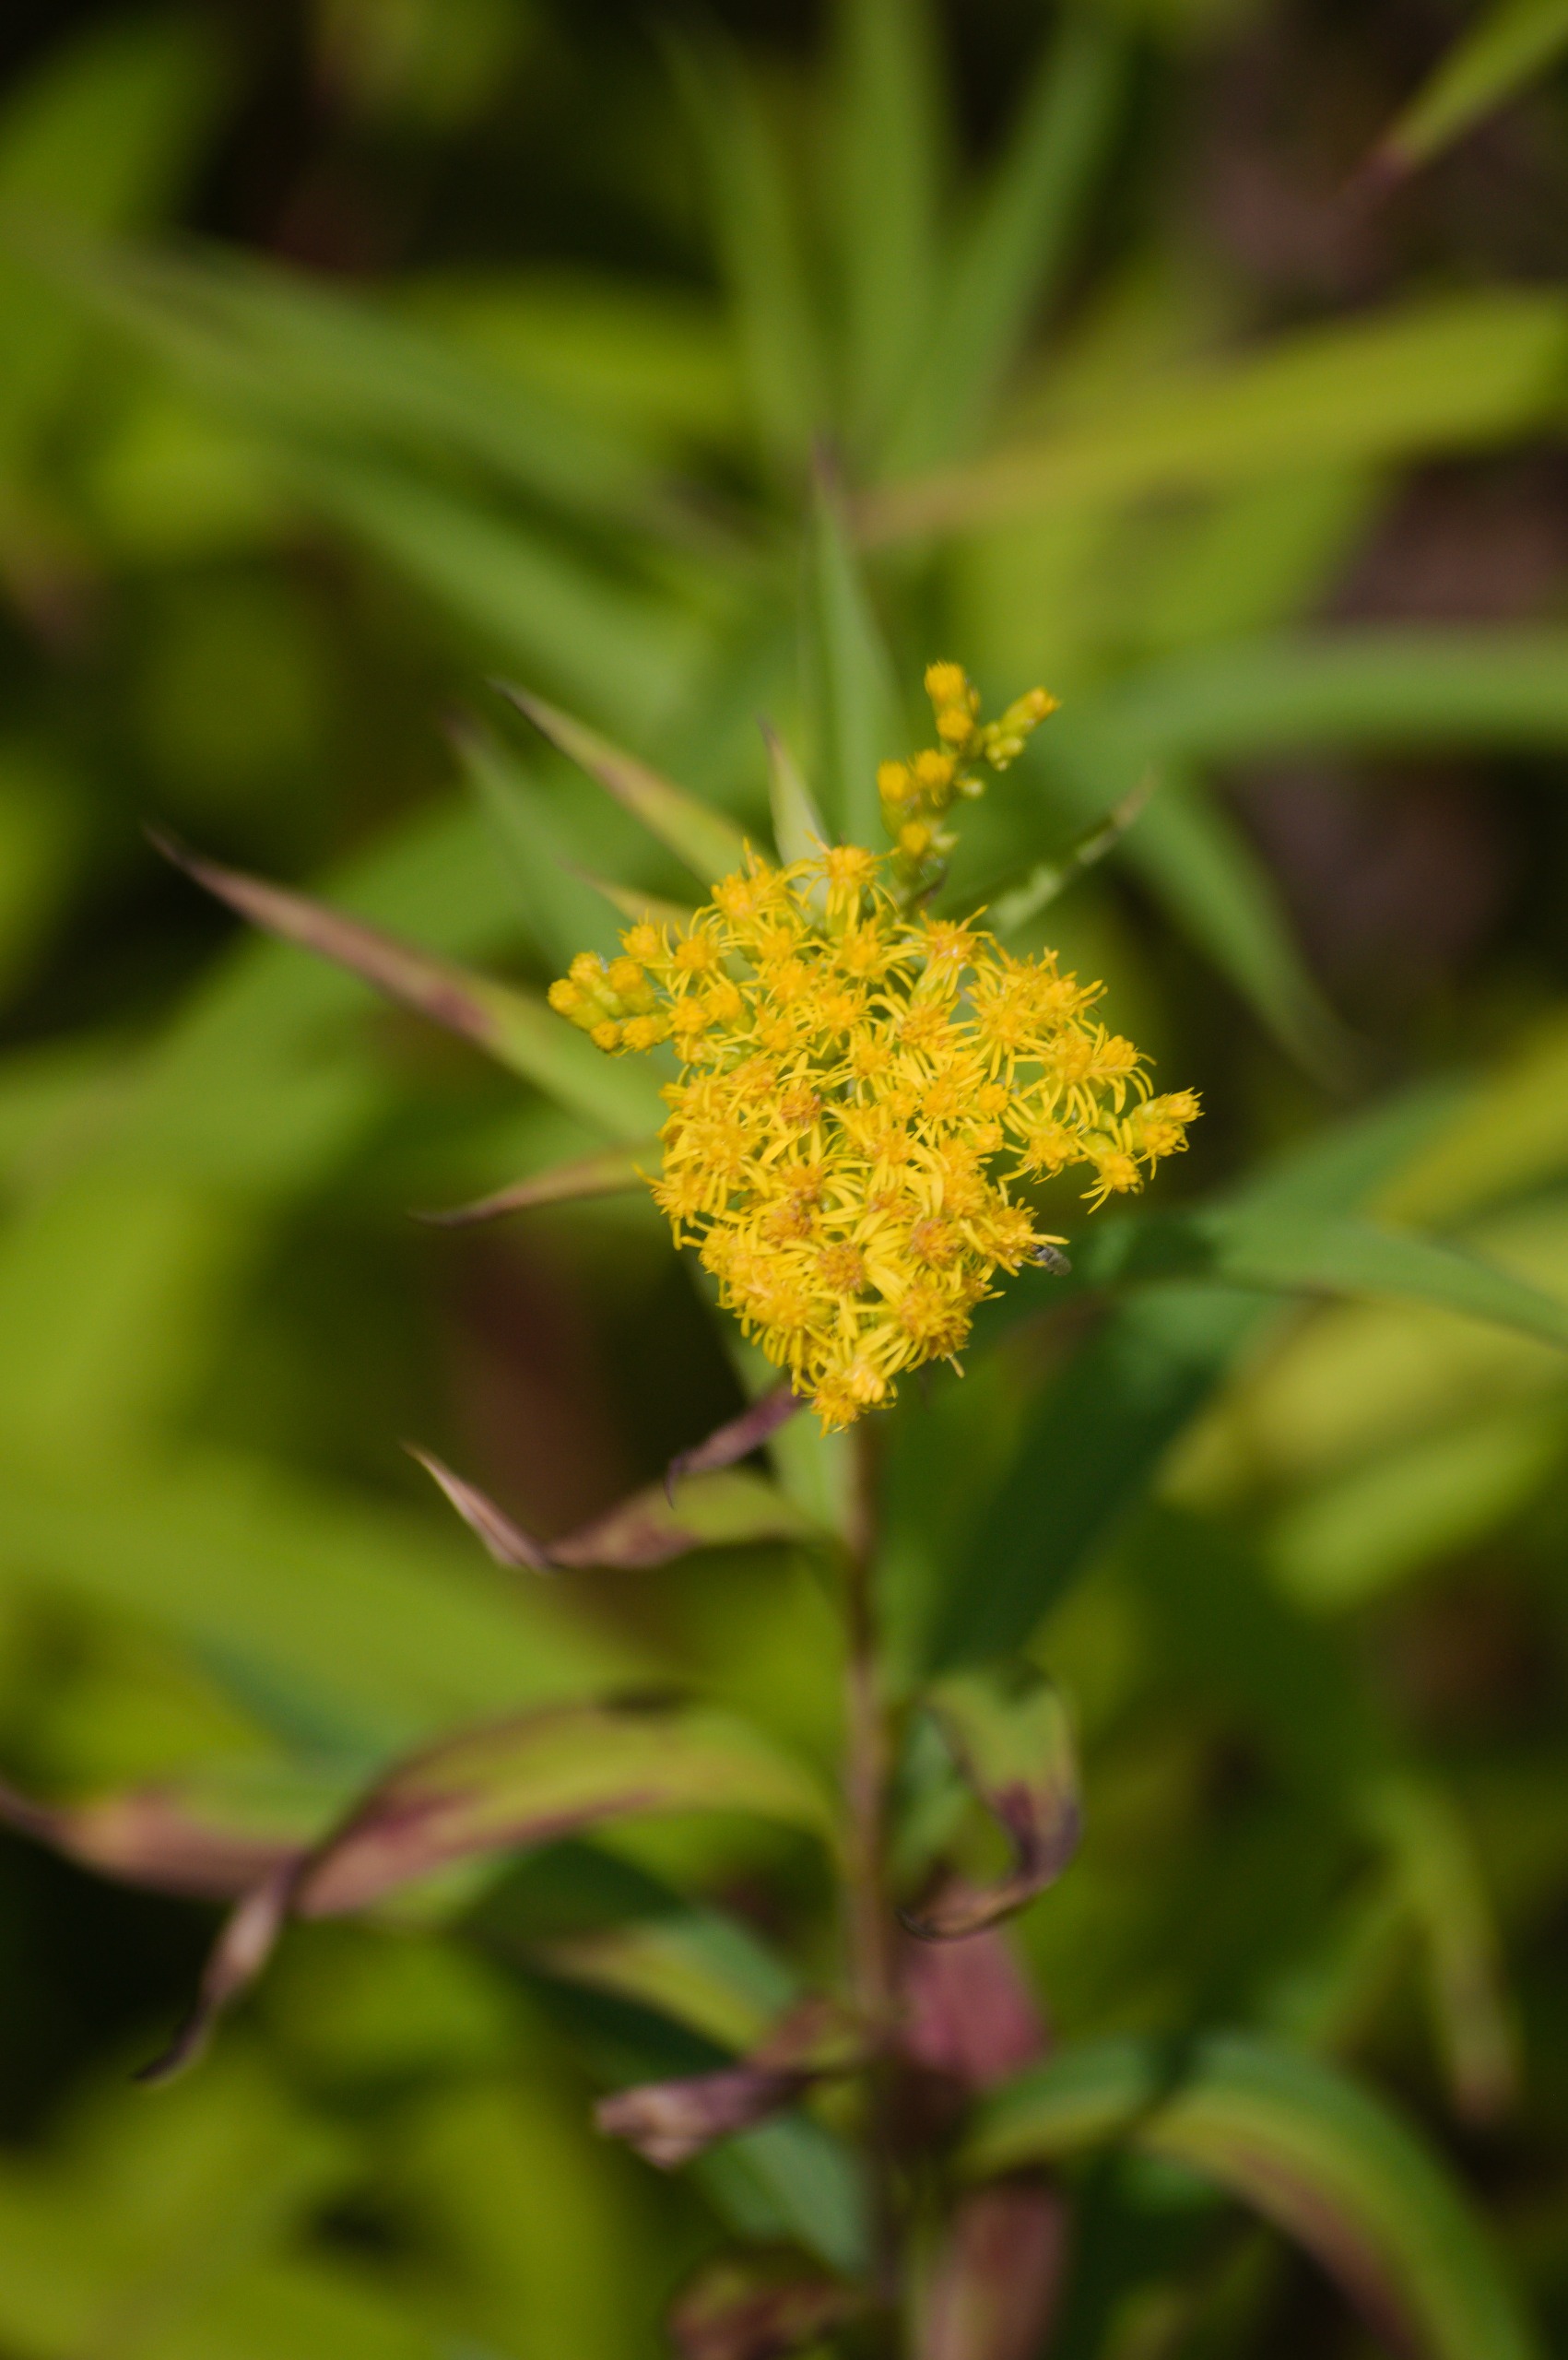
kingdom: Plantae
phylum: Tracheophyta
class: Magnoliopsida
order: Asterales
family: Asteraceae
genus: Solidago
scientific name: Solidago
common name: Gyldenrisslægten
